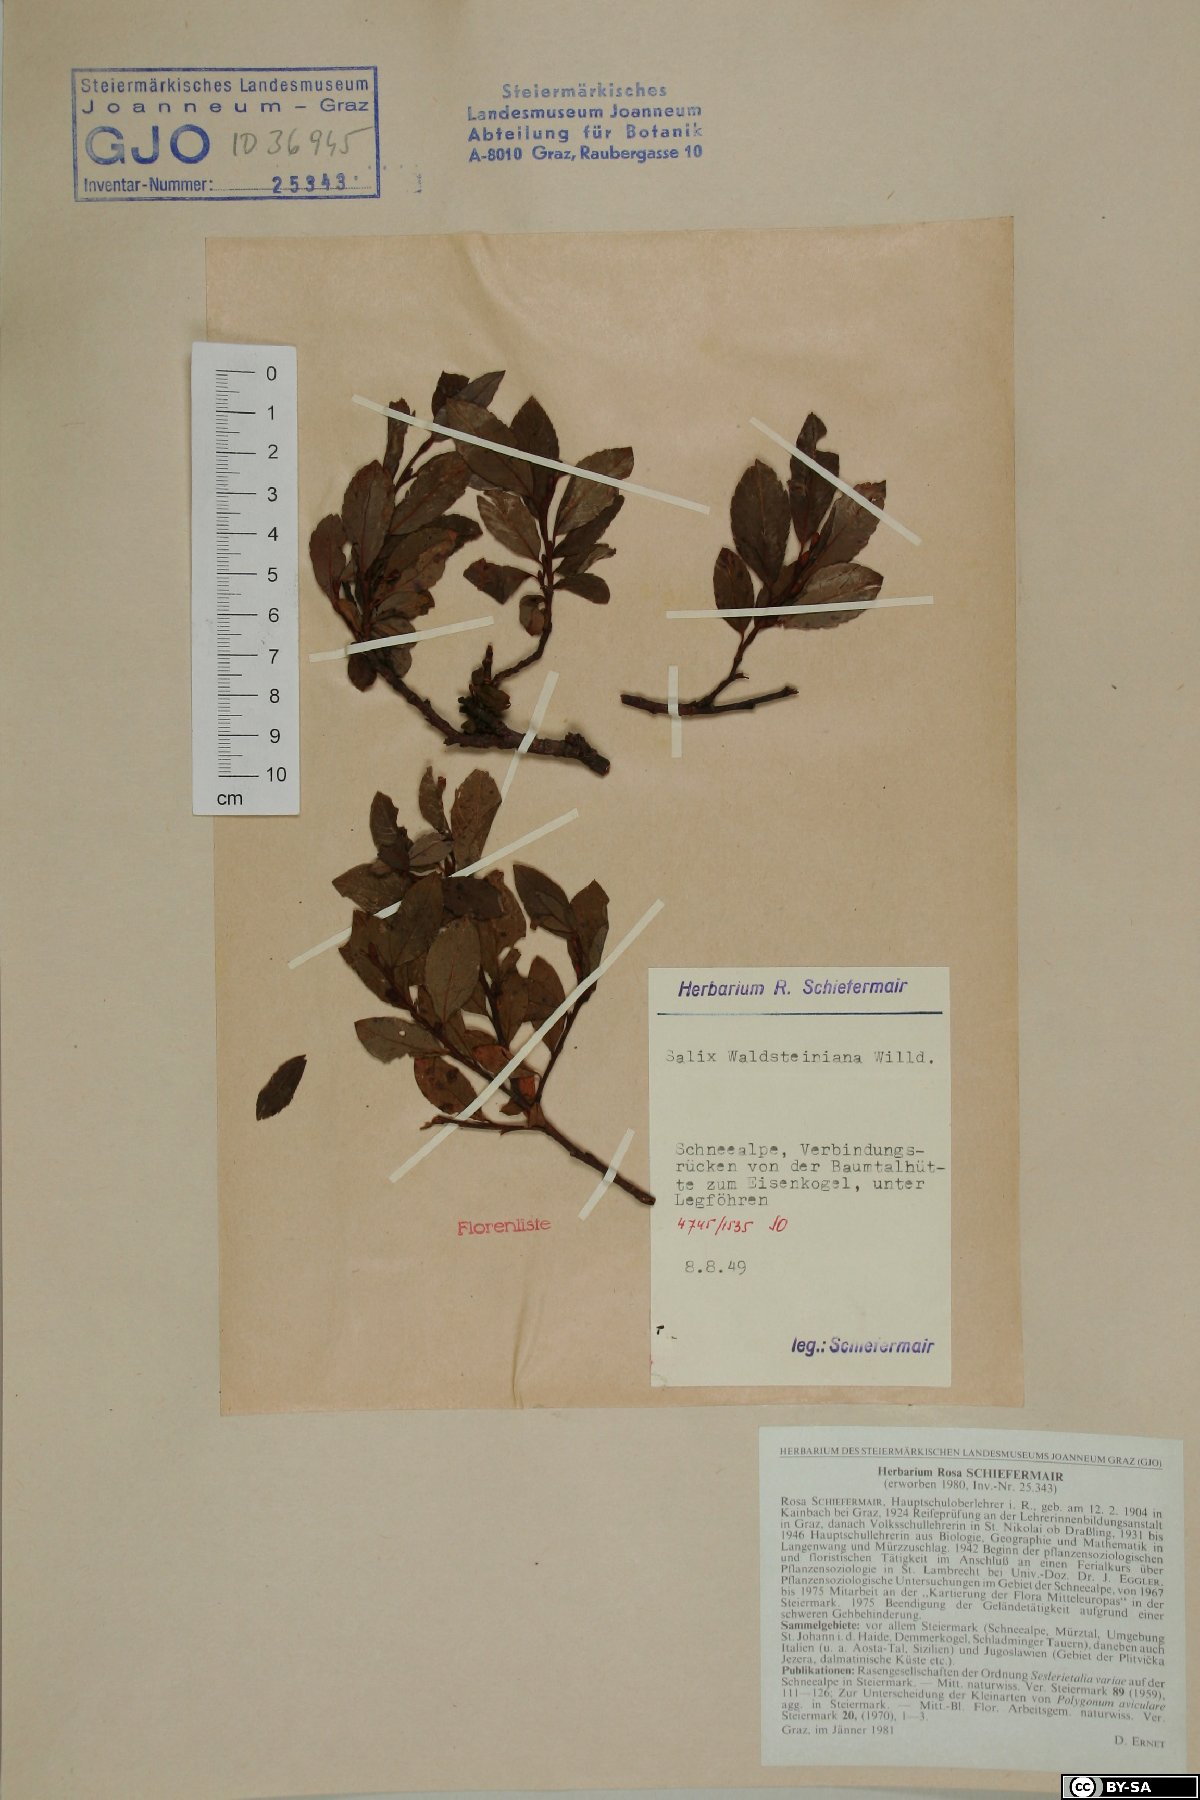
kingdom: Plantae
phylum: Tracheophyta
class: Magnoliopsida
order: Malpighiales
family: Salicaceae
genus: Salix
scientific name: Salix waldsteiniana
